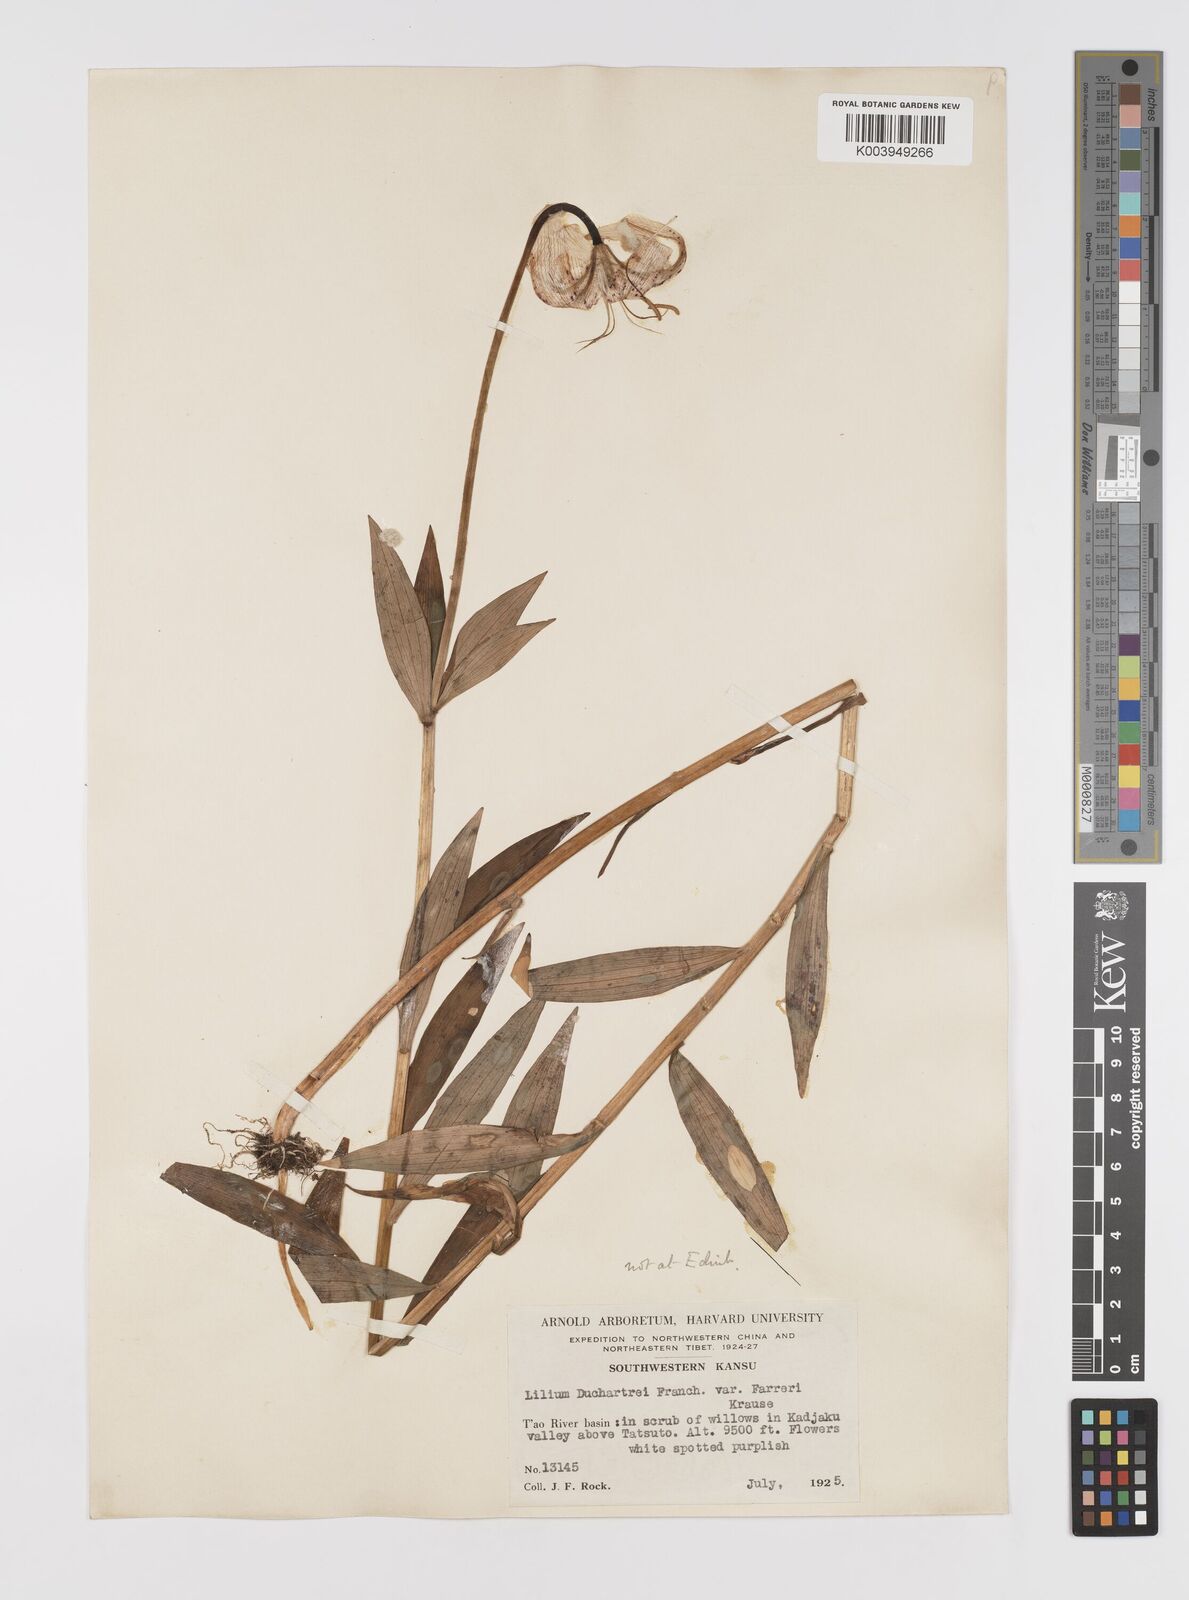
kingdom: Plantae
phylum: Tracheophyta
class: Liliopsida
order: Liliales
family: Liliaceae
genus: Lilium
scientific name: Lilium duchartrei
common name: Duchartre lily
